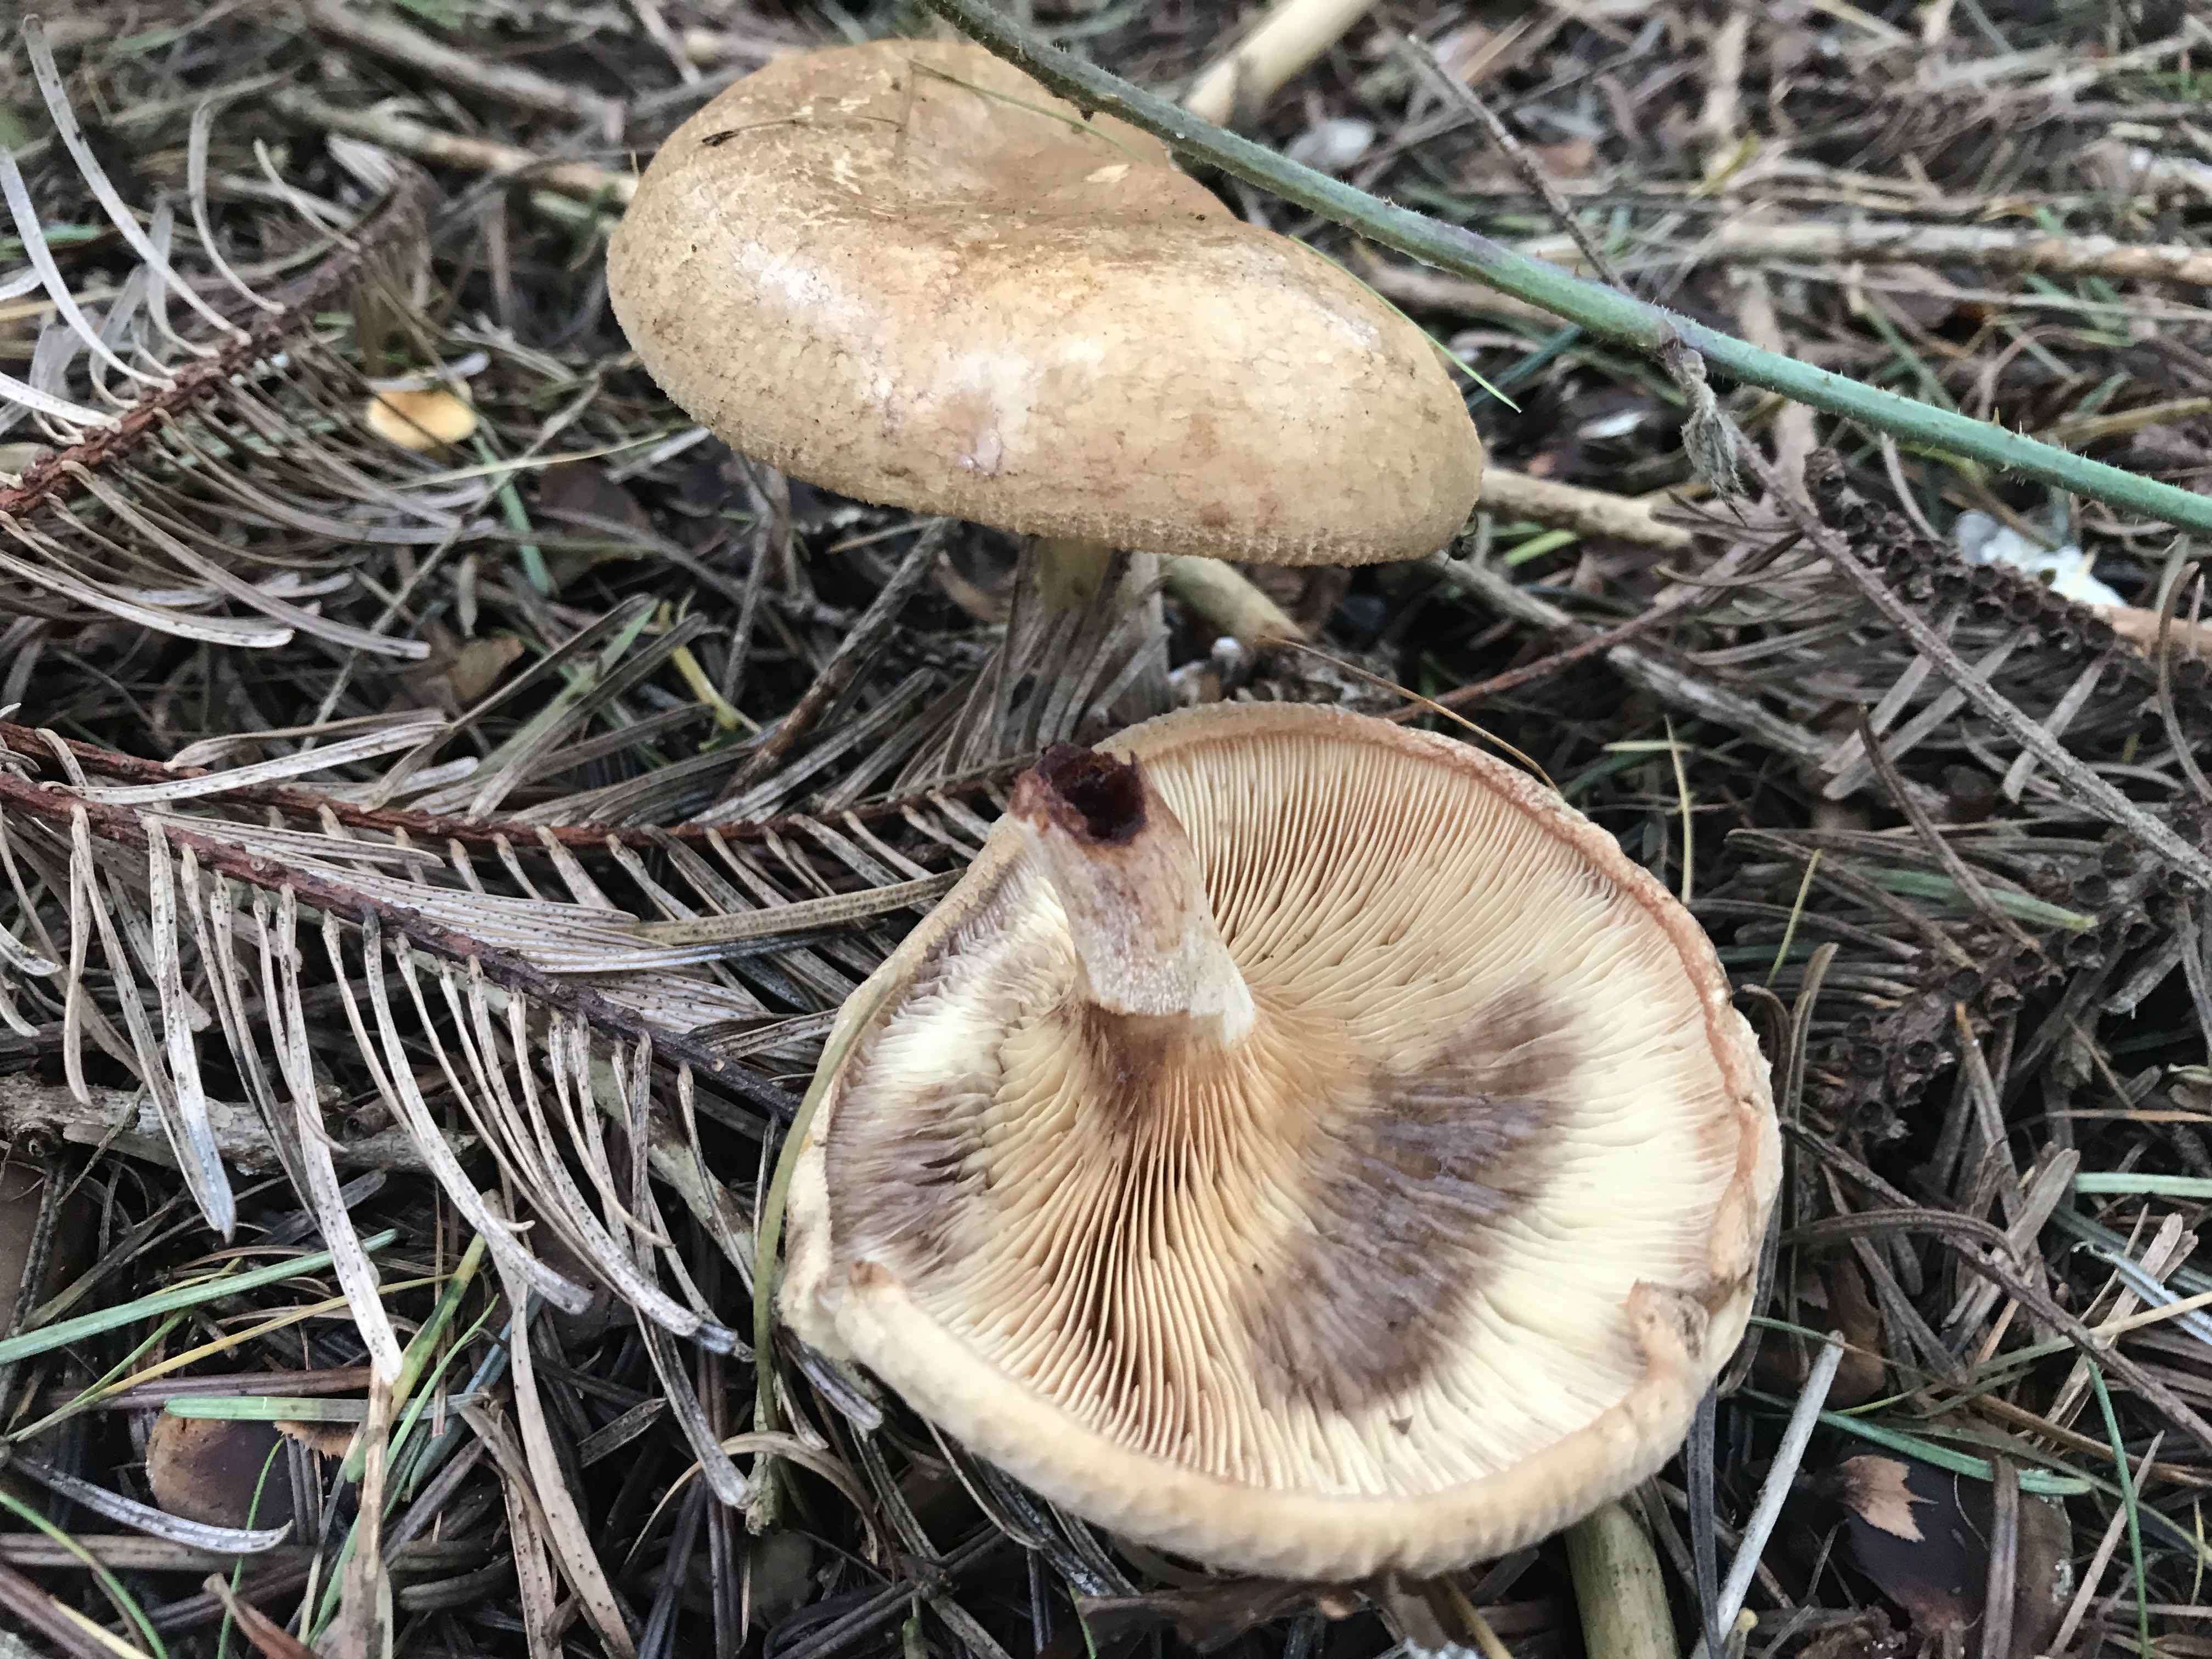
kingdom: Fungi
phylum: Basidiomycota
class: Agaricomycetes
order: Boletales
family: Paxillaceae
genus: Paxillus
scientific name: Paxillus involutus
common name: almindelig netbladhat
